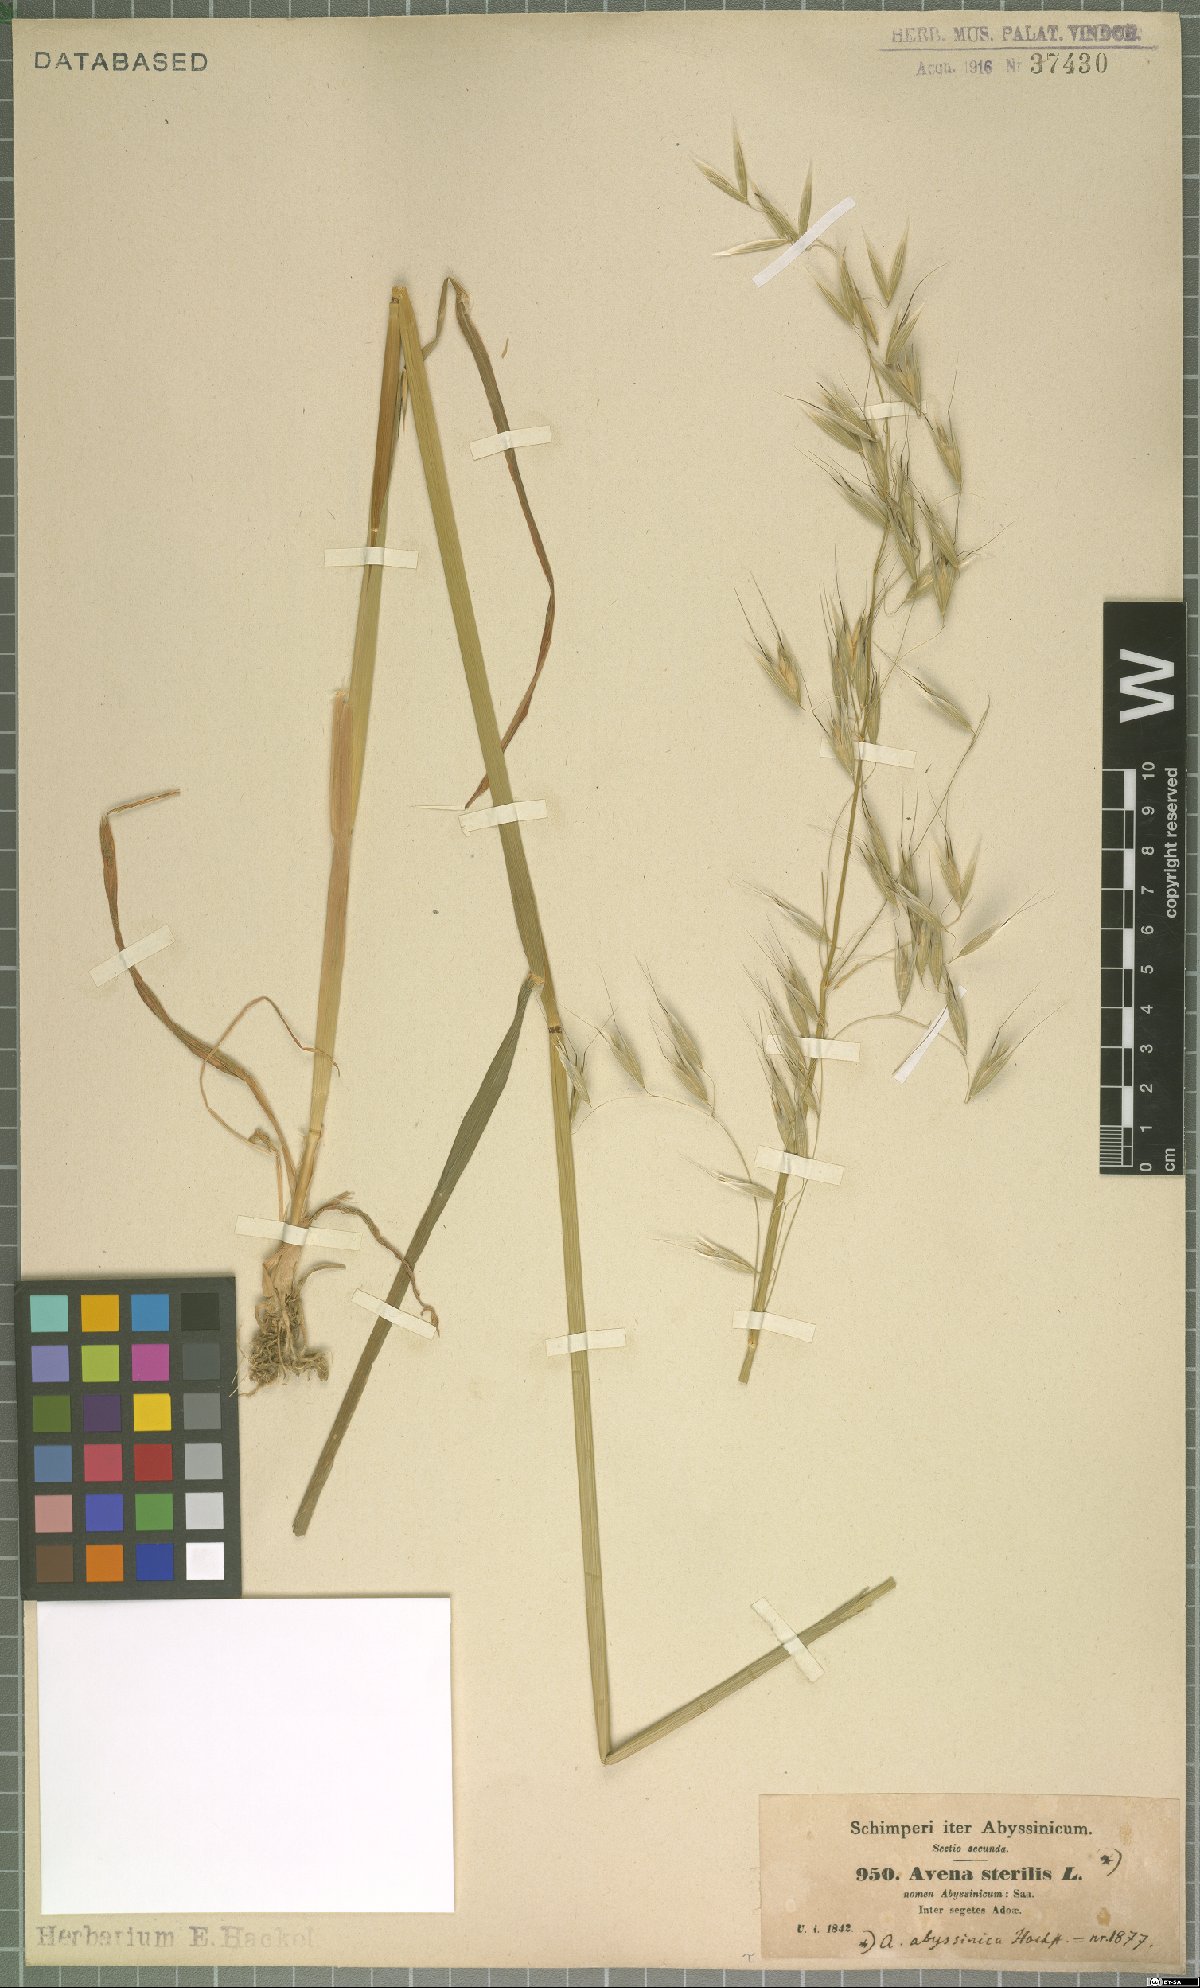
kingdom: Plantae
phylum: Tracheophyta
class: Liliopsida
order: Poales
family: Poaceae
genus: Avena
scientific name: Avena abyssinica
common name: Ethiopian oat
